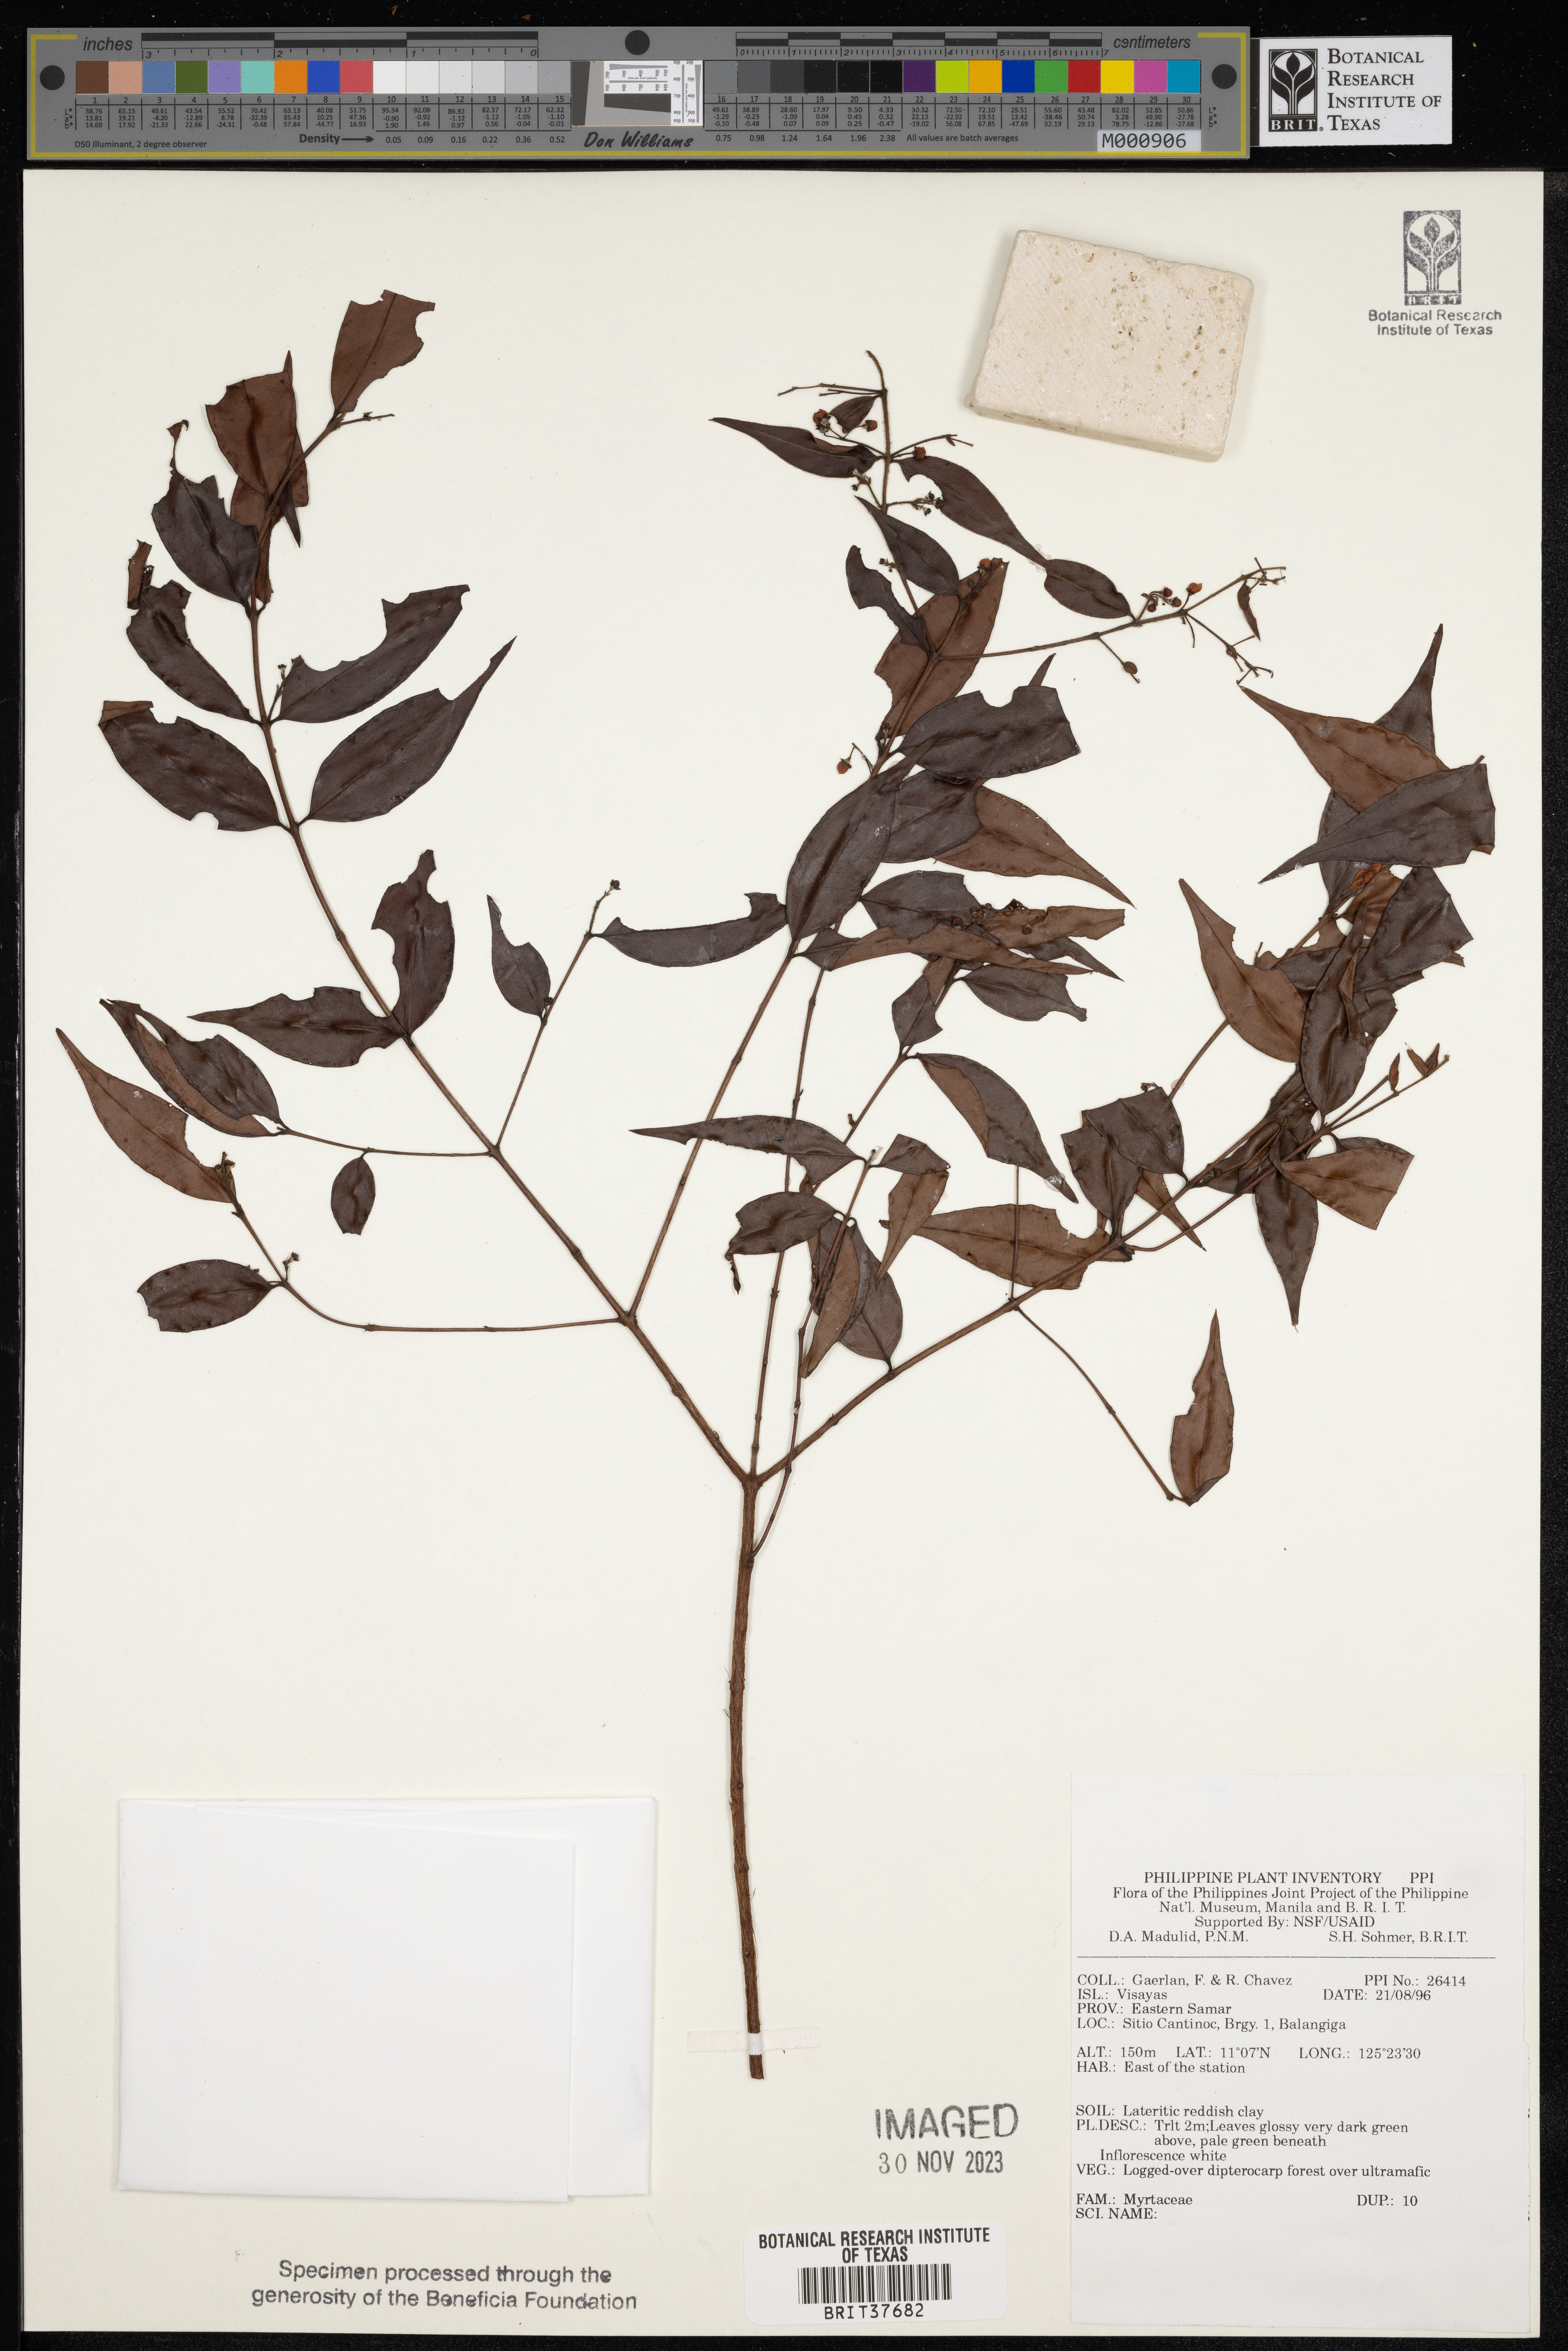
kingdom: Plantae
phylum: Tracheophyta
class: Magnoliopsida
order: Myrtales
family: Myrtaceae
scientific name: Myrtaceae
